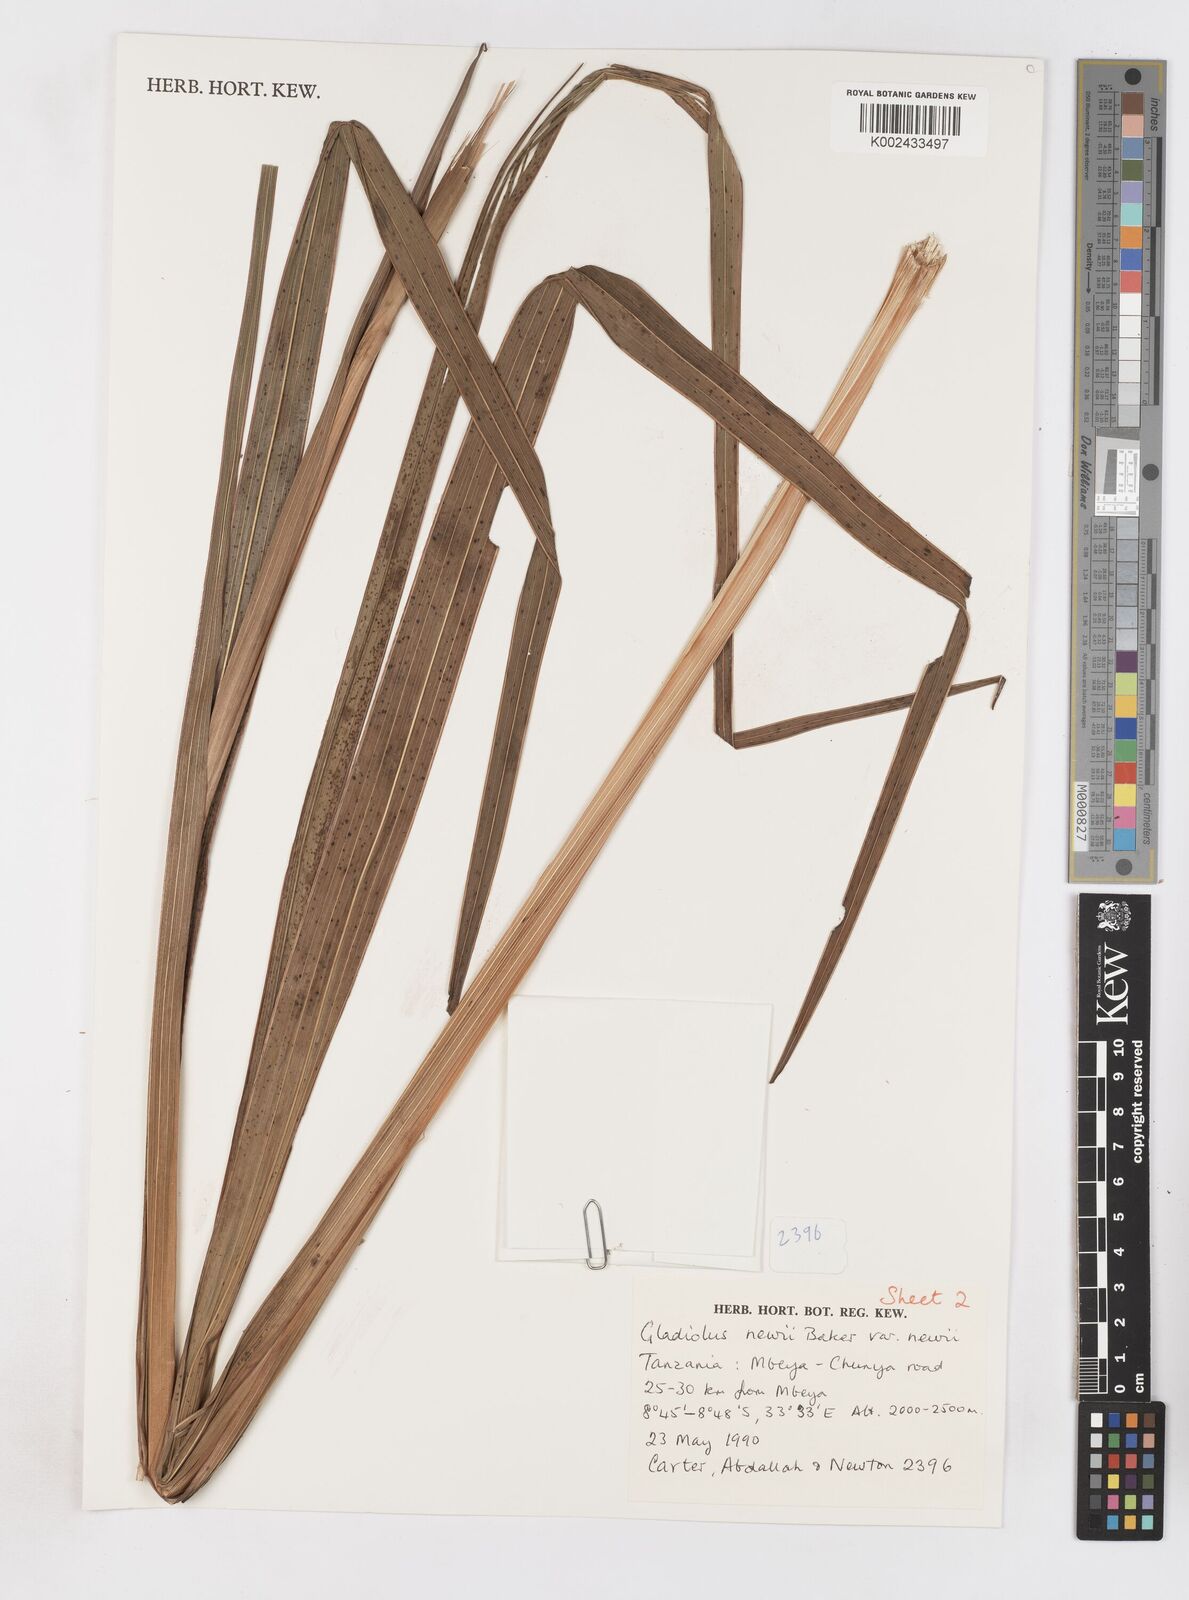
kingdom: Plantae
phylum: Tracheophyta
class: Liliopsida
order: Asparagales
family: Iridaceae
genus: Gladiolus
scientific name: Gladiolus dalenii
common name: Cornflag
